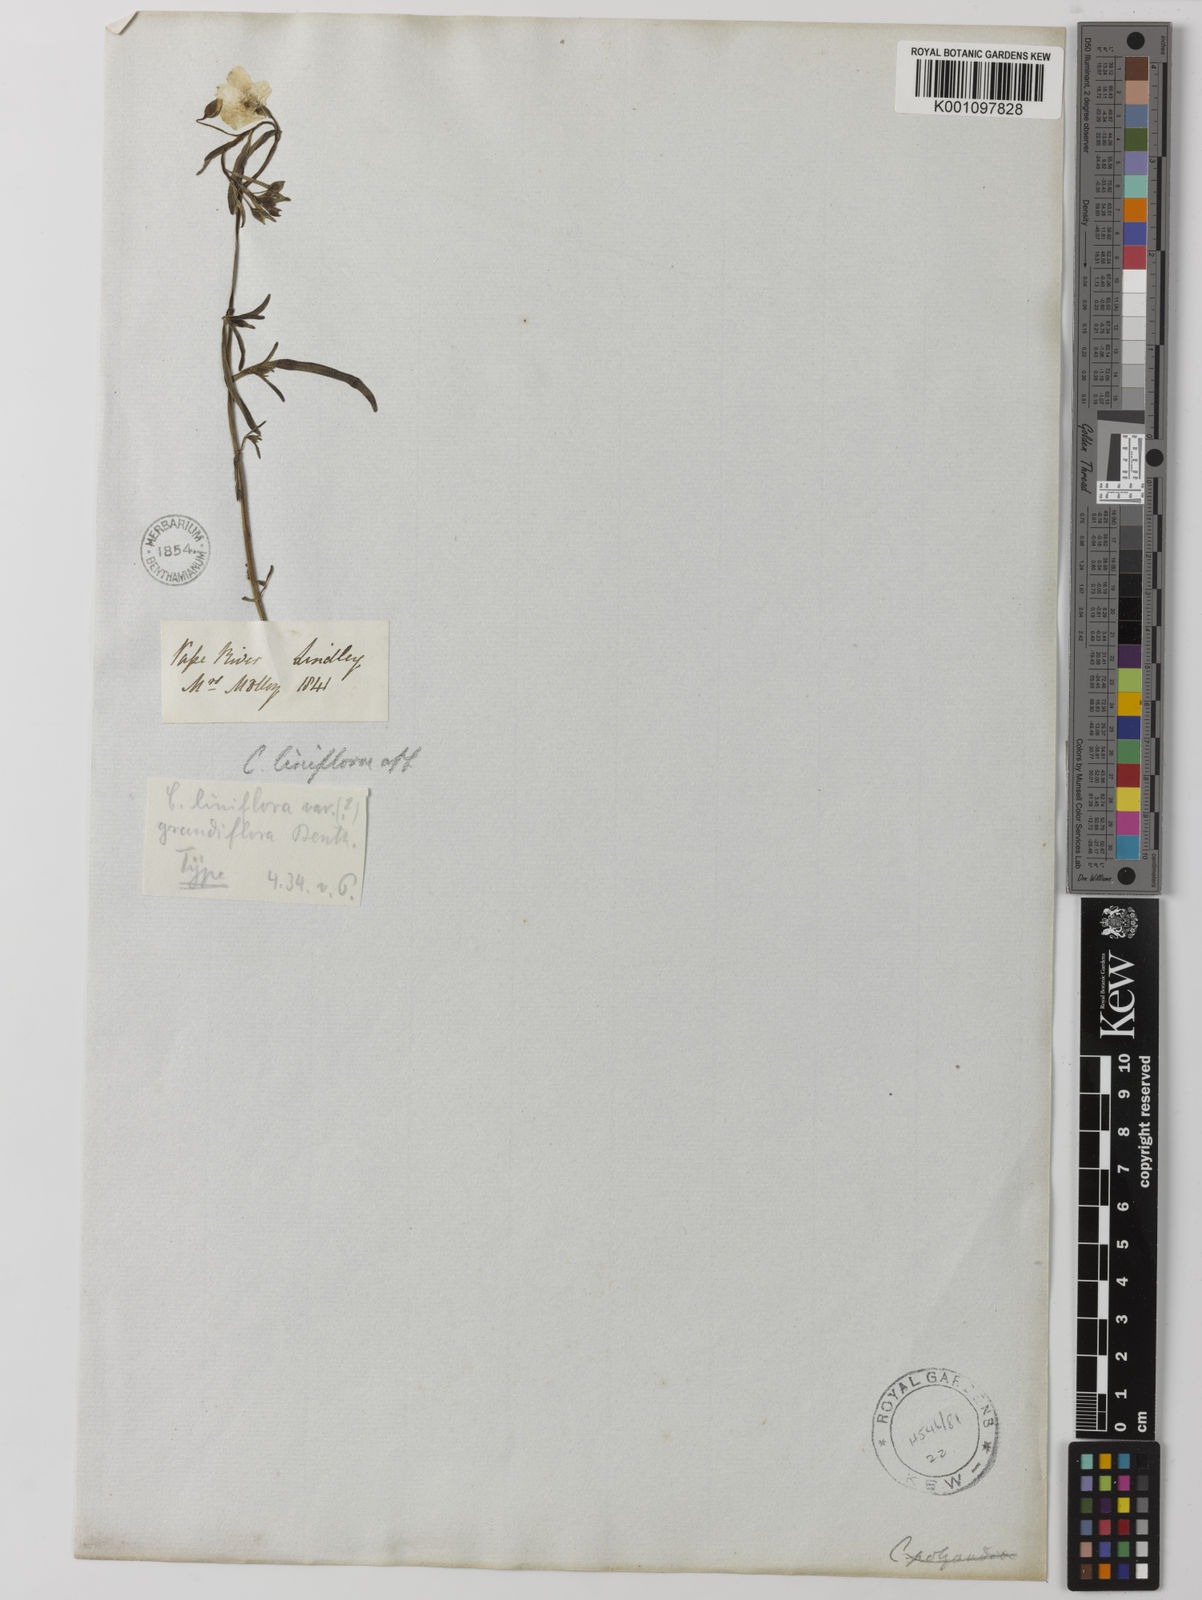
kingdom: Plantae
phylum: Tracheophyta
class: Magnoliopsida
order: Caryophyllales
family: Montiaceae
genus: Rumicastrum
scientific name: Rumicastrum liniflorum
